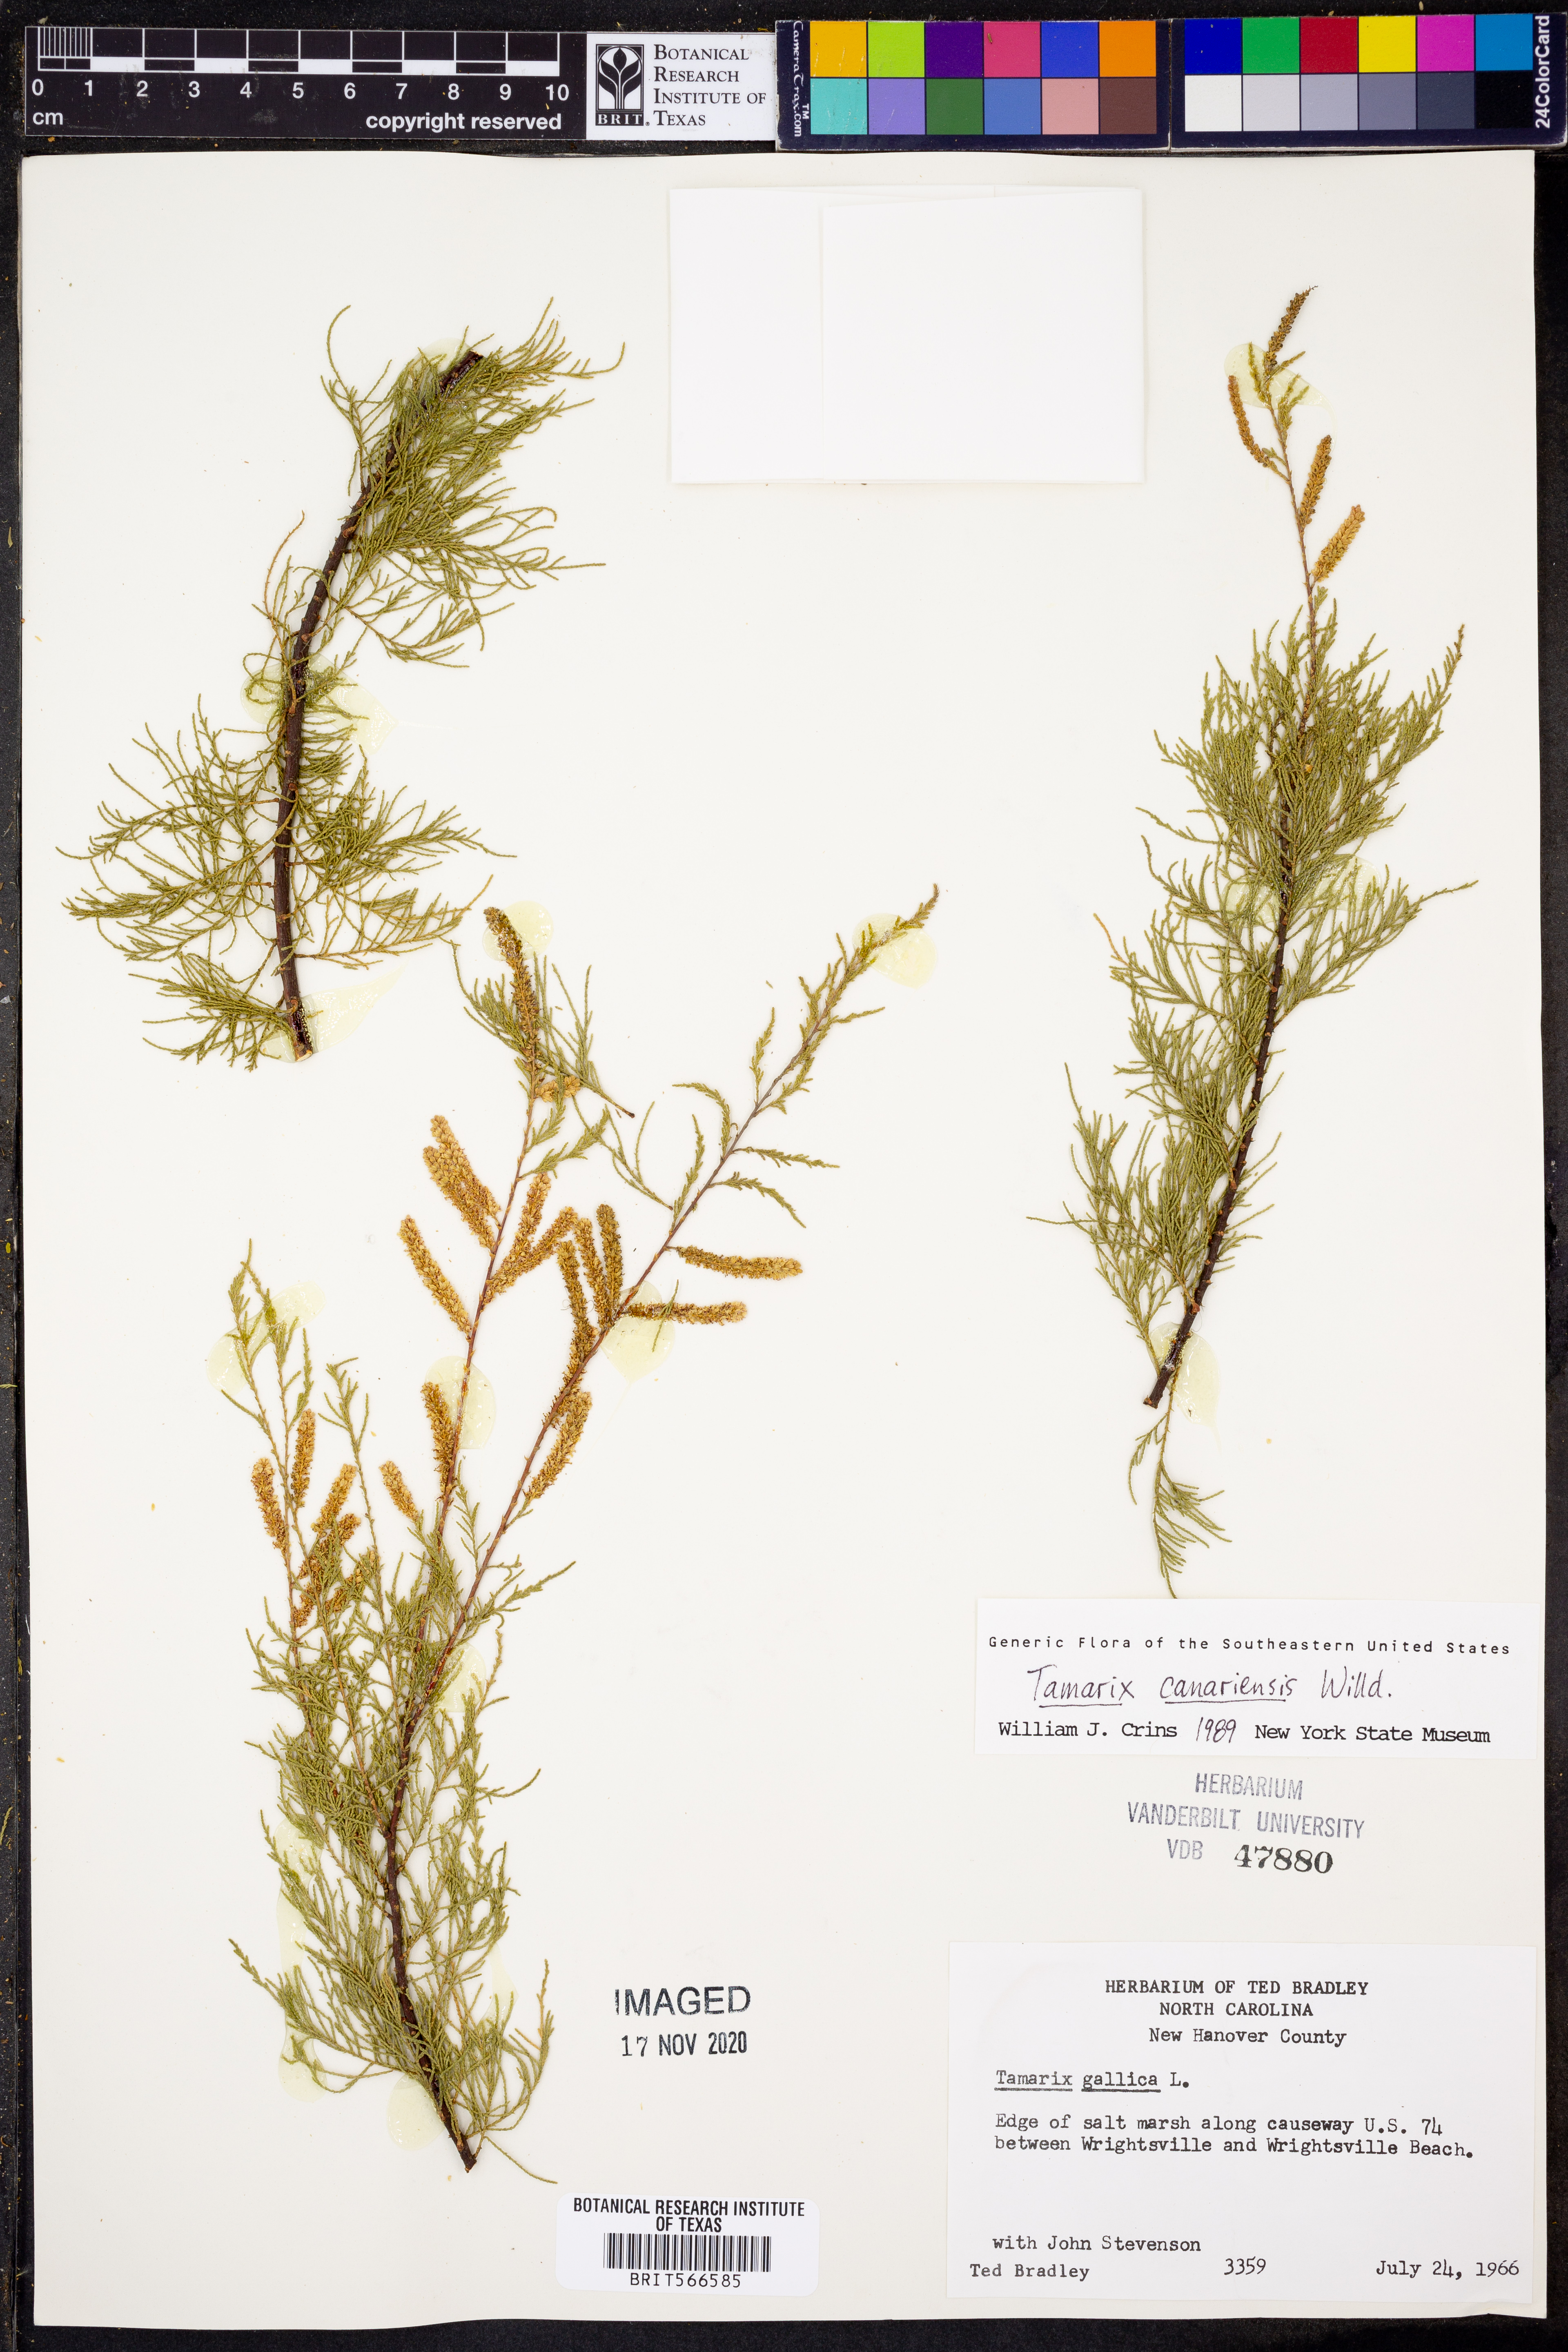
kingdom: Plantae
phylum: Tracheophyta
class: Magnoliopsida
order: Caryophyllales
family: Tamaricaceae
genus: Tamarix
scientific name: Tamarix canariensis
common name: Canary island tamarisk
